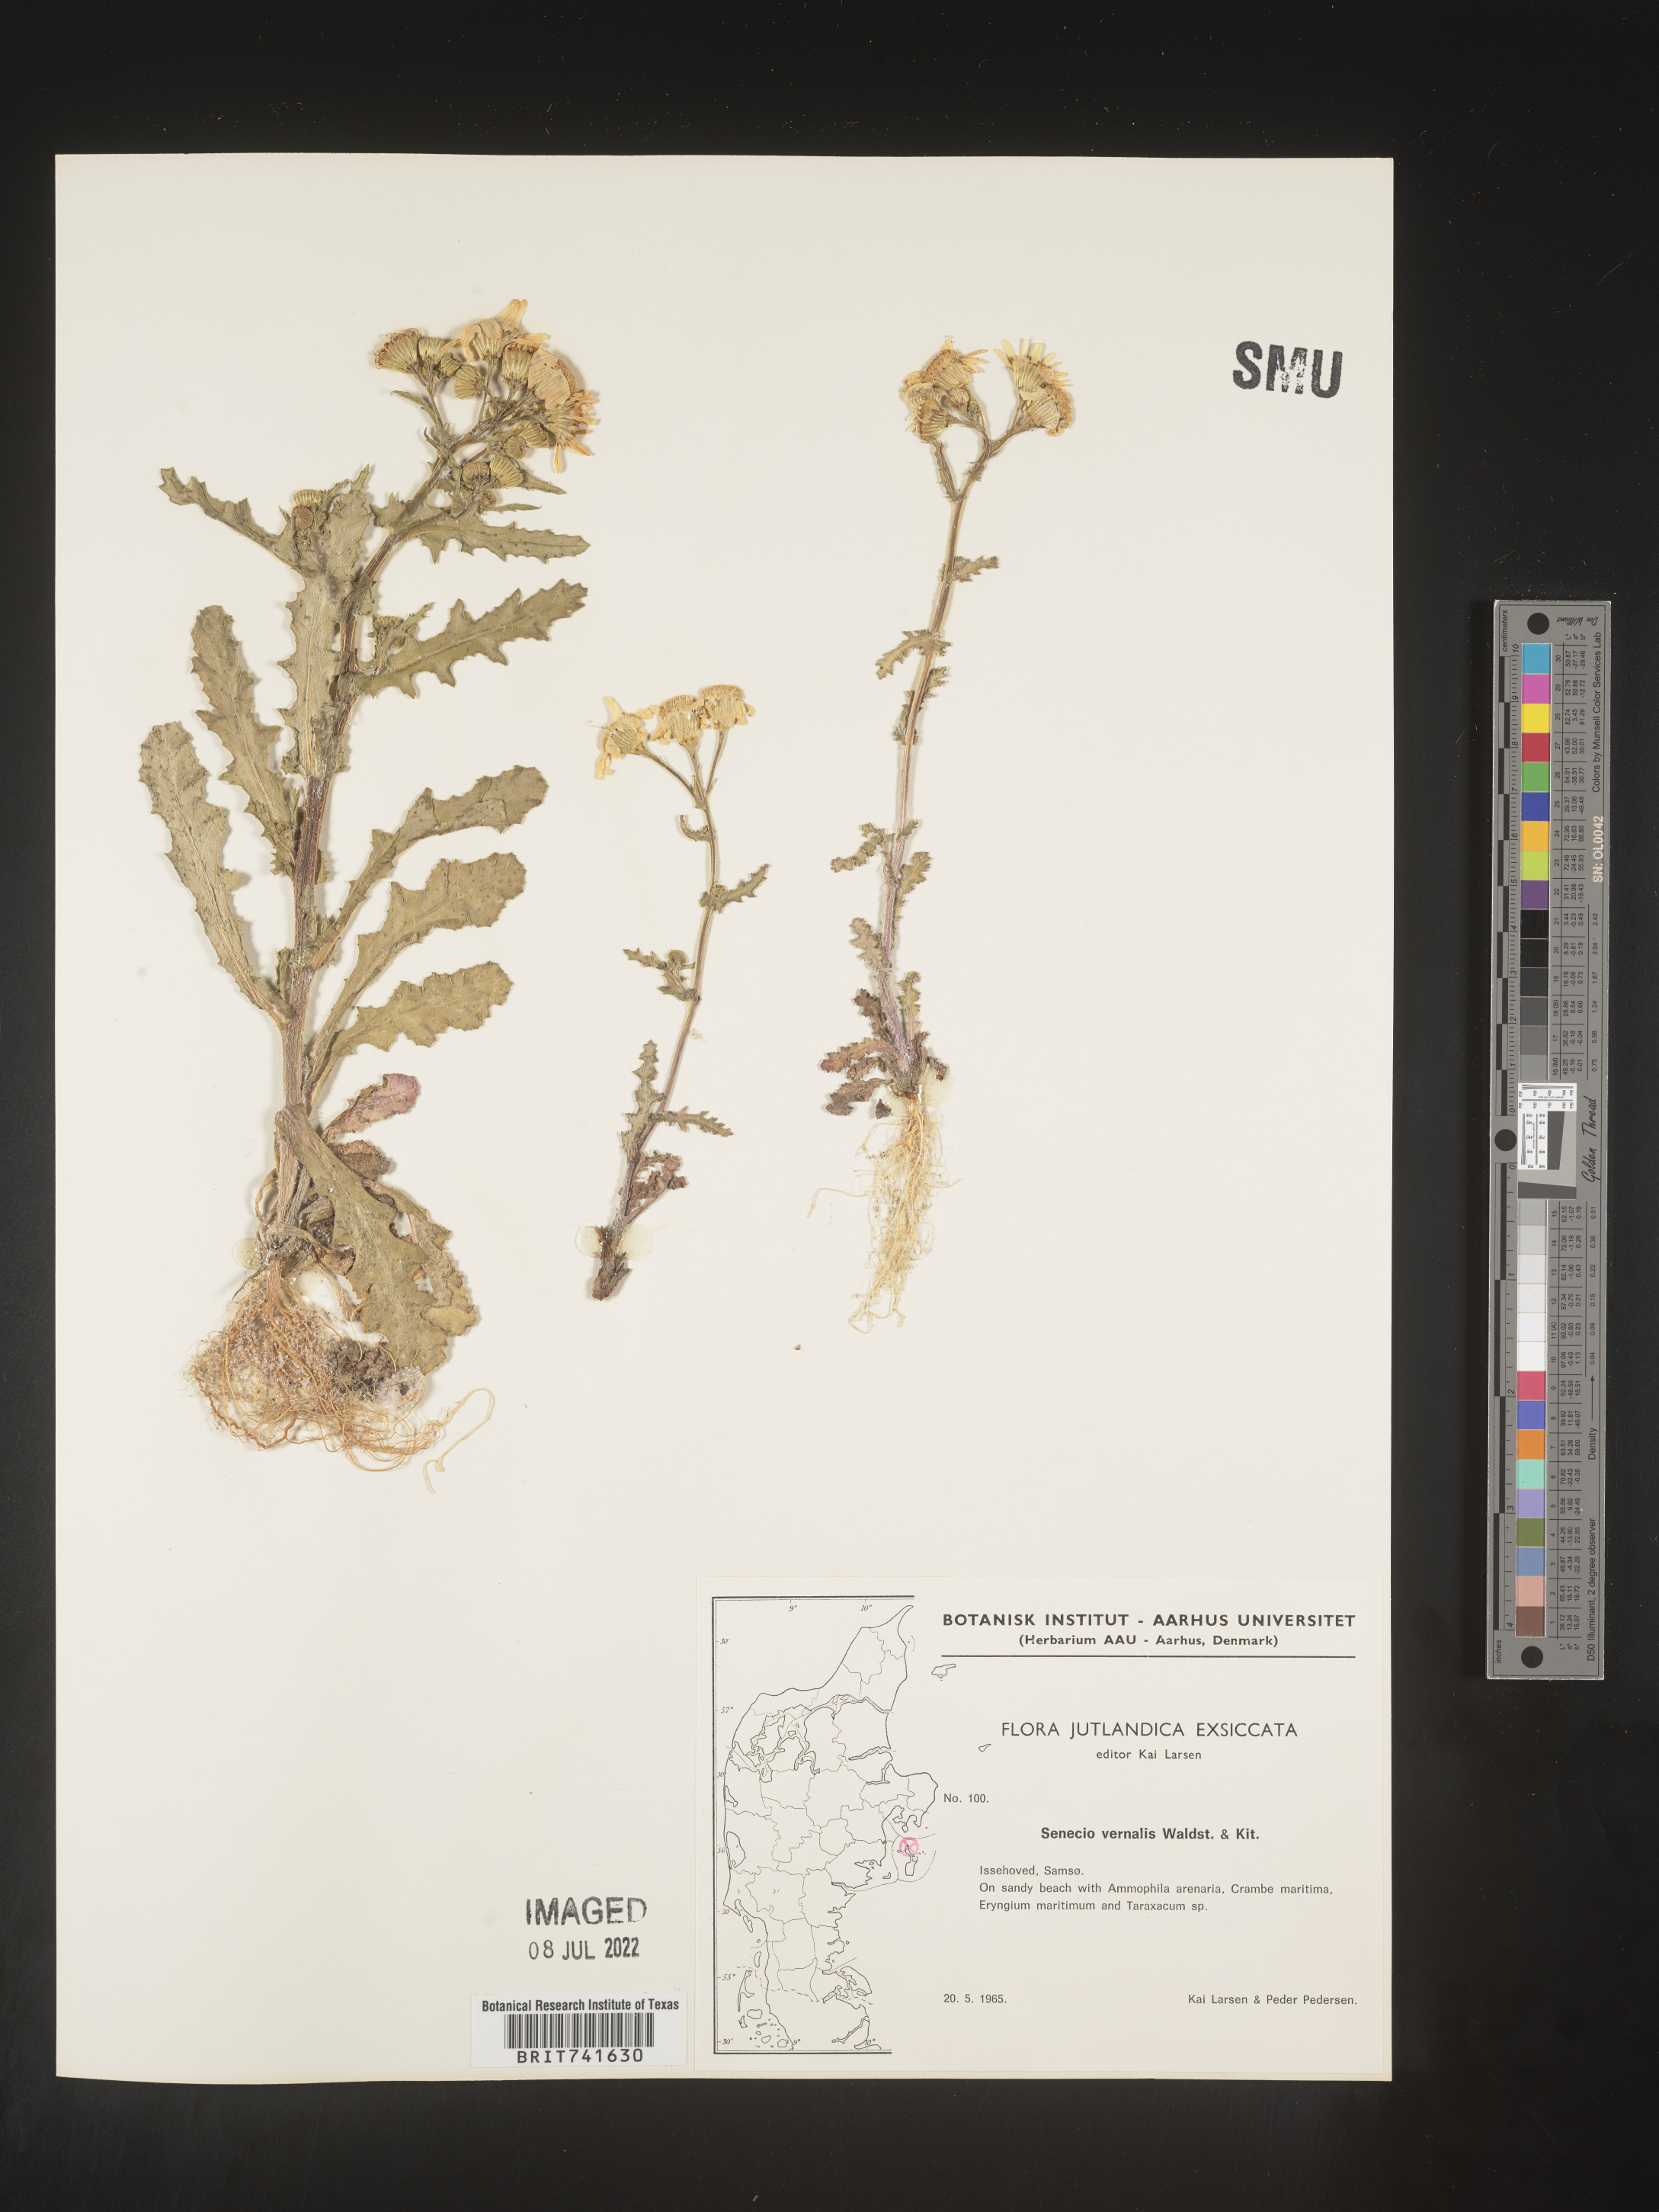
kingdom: Plantae
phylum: Tracheophyta
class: Magnoliopsida
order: Asterales
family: Asteraceae
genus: Senecio
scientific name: Senecio vernalis
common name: Eastern groundsel
